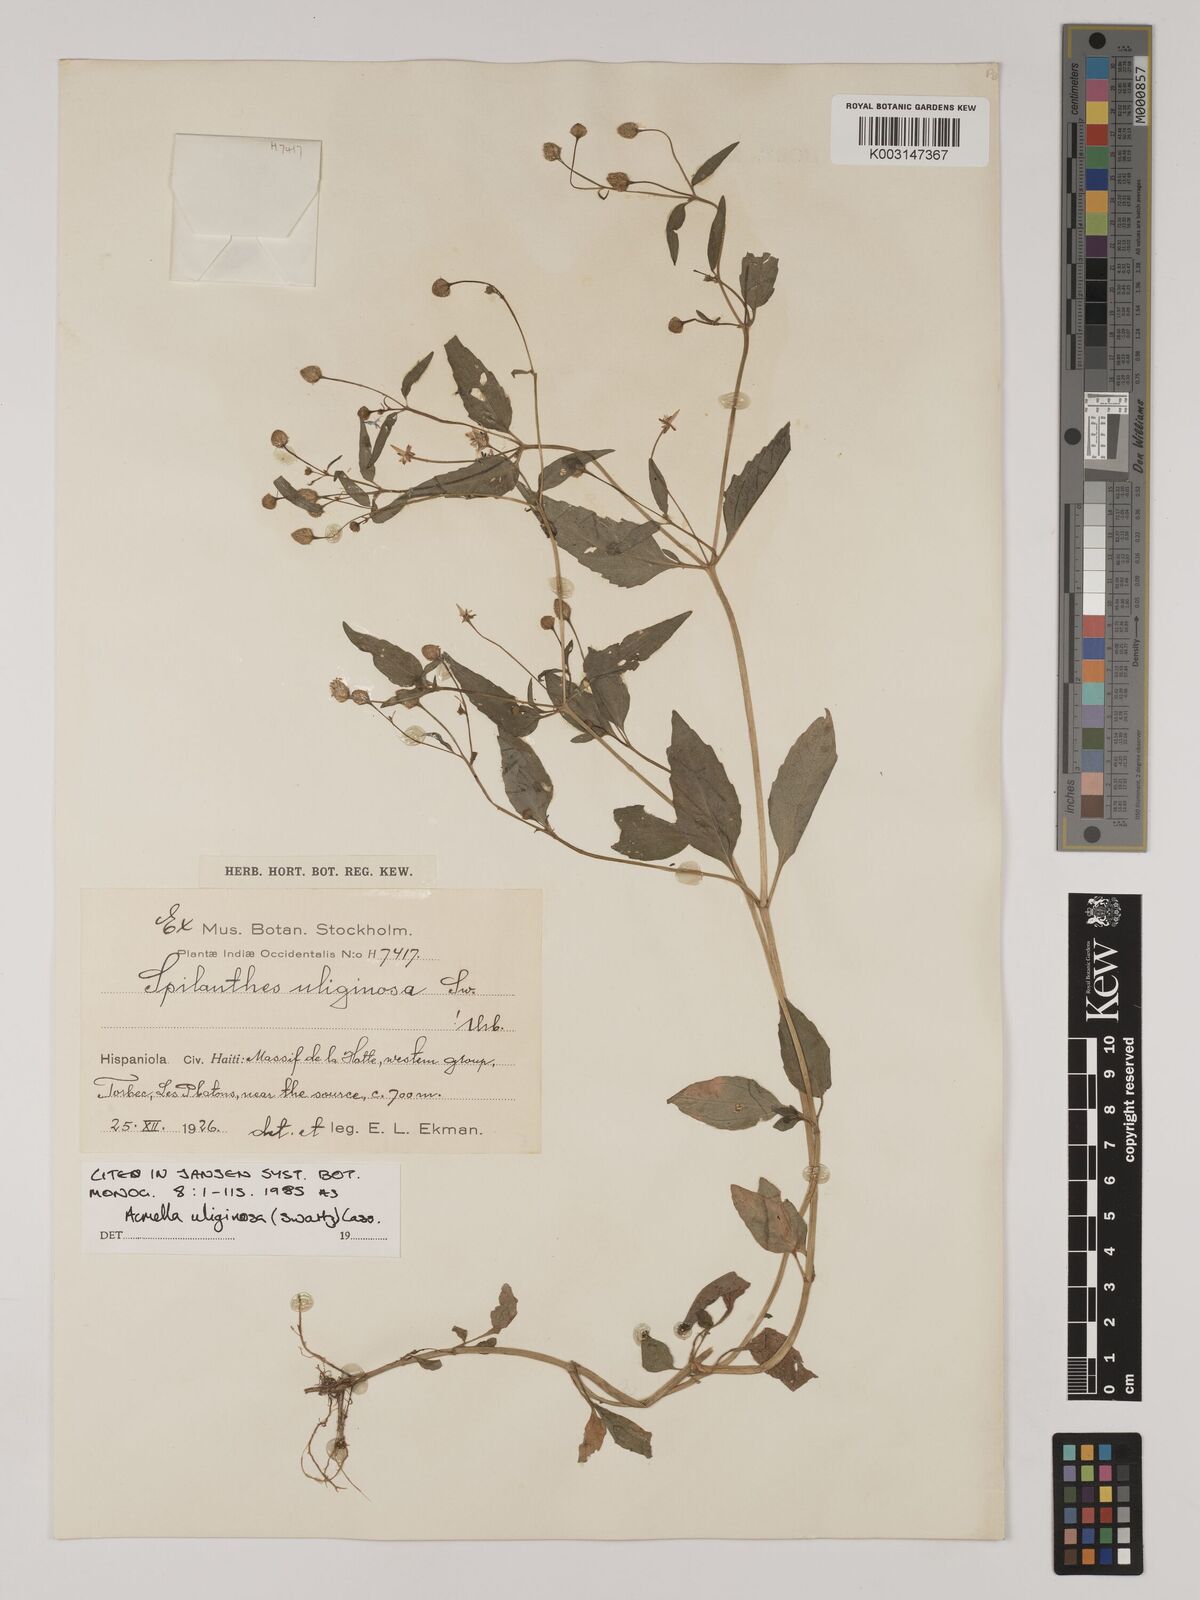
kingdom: Plantae
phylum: Tracheophyta
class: Magnoliopsida
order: Asterales
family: Asteraceae
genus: Acmella
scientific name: Acmella uliginosa
